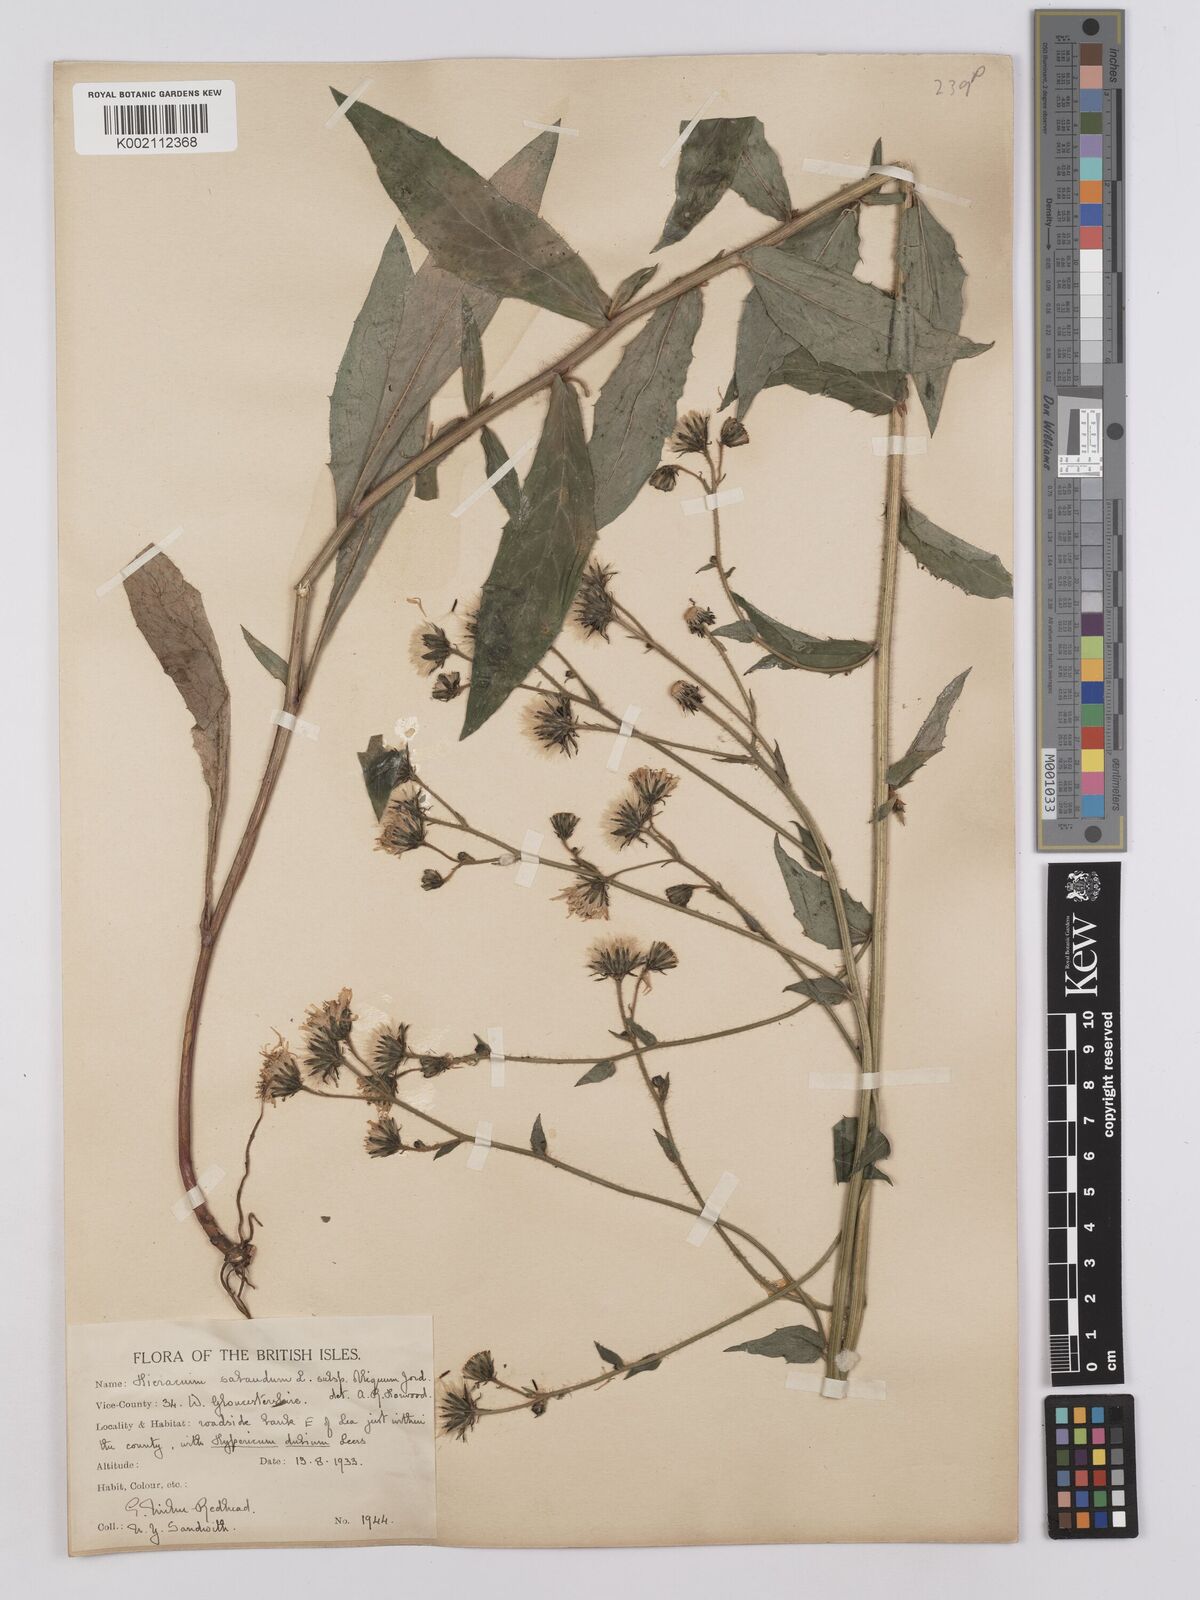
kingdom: Plantae
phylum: Tracheophyta
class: Magnoliopsida
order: Asterales
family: Asteraceae
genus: Hieracium
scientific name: Hieracium sabaudum
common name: New england hawkweed
